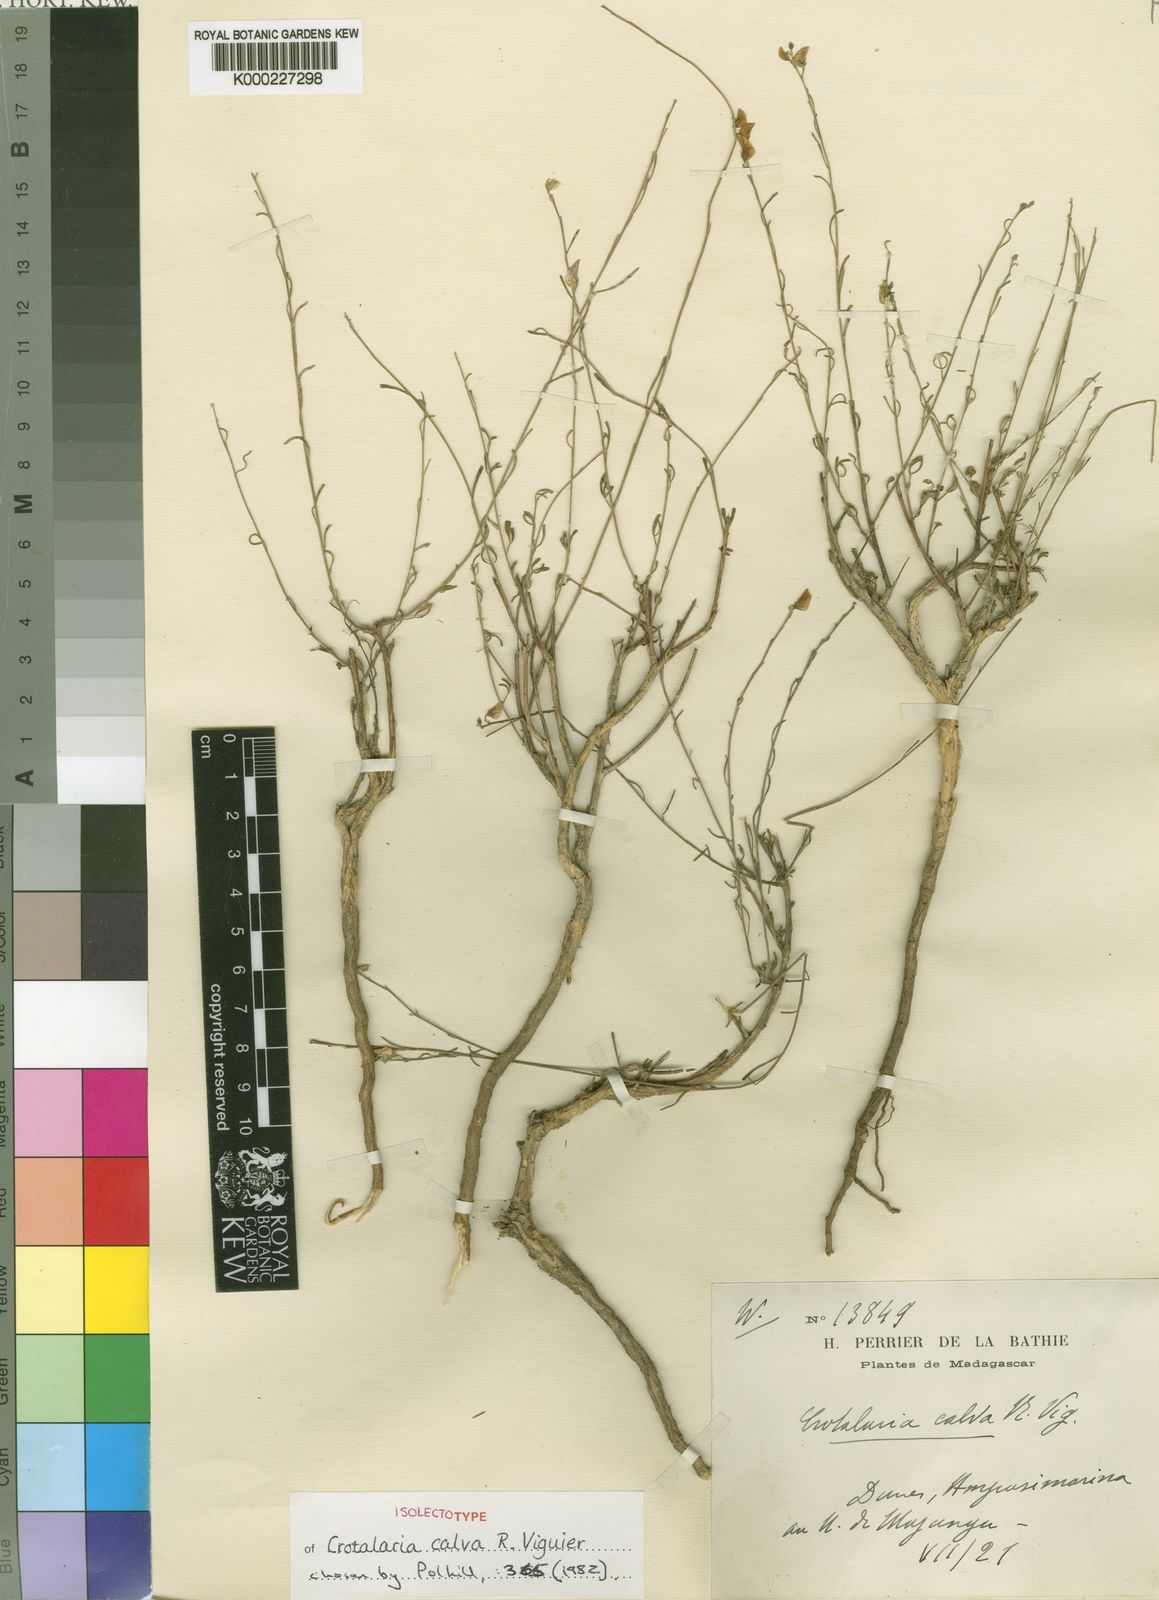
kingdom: Plantae
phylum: Tracheophyta
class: Magnoliopsida
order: Fabales
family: Fabaceae
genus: Crotalaria
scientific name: Crotalaria calva
